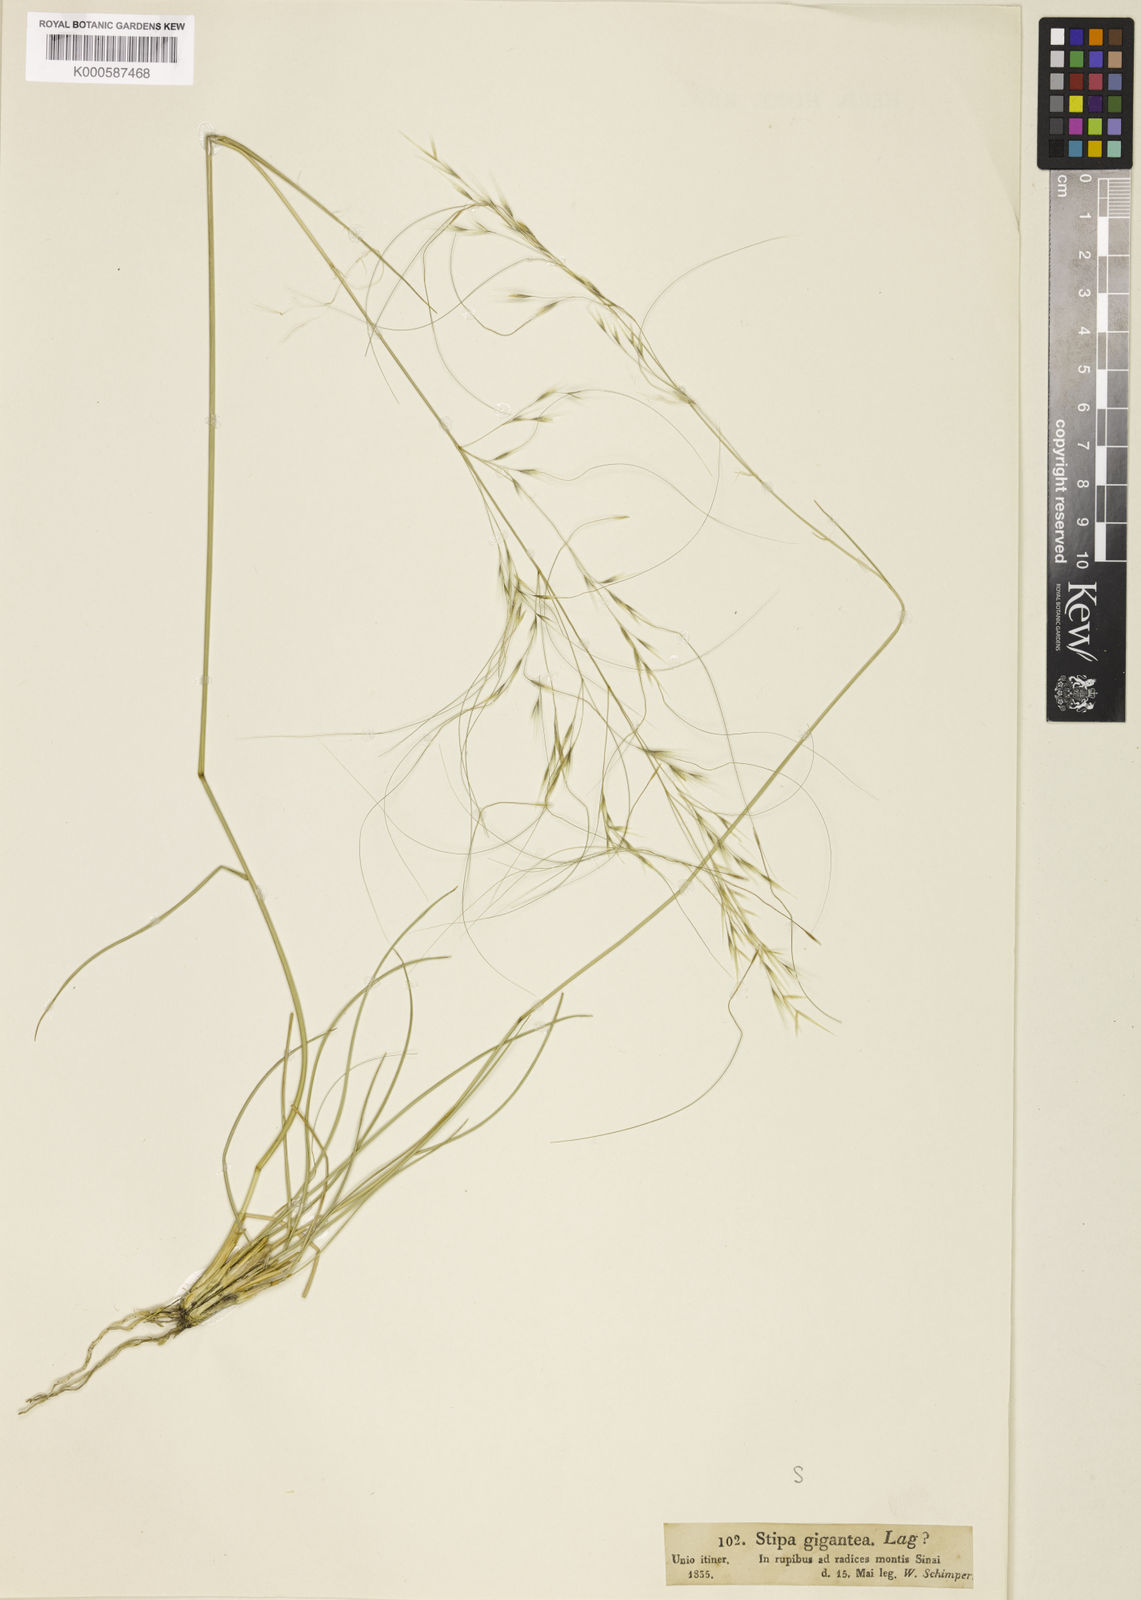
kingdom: Plantae
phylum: Tracheophyta
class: Liliopsida
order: Poales
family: Poaceae
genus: Achnatherum
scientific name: Achnatherum parviflorum
